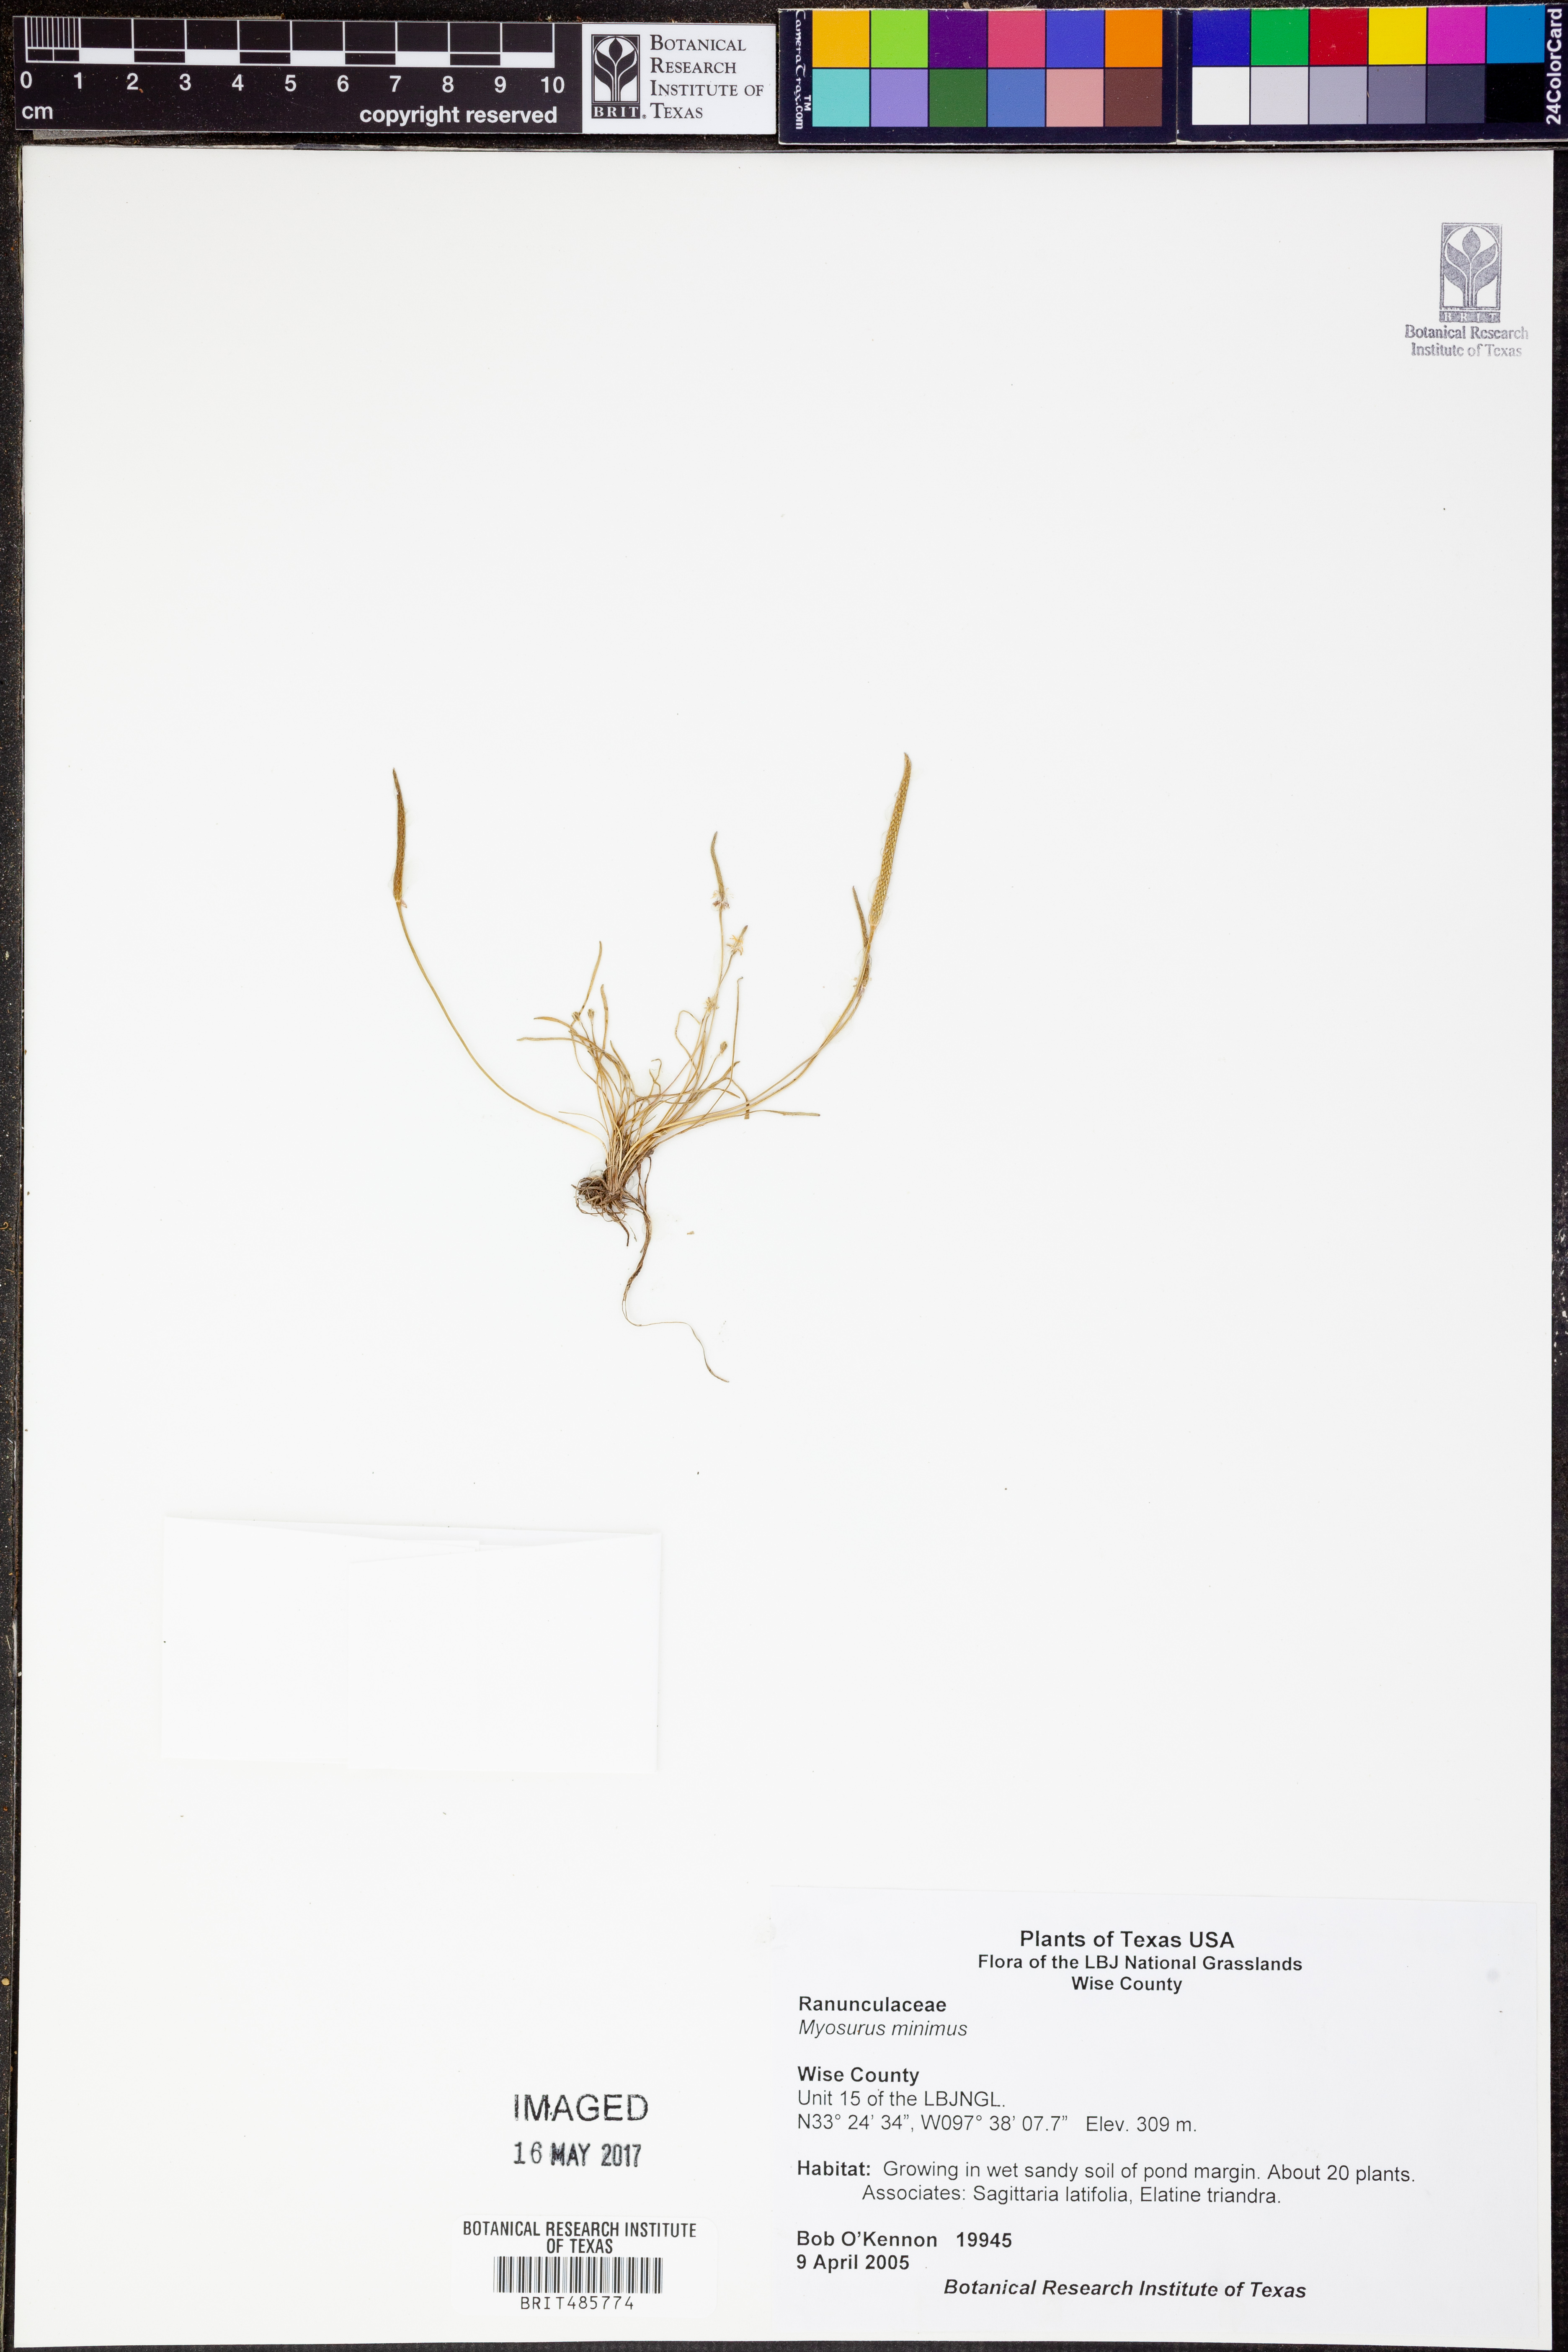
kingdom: Plantae
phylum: Tracheophyta
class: Magnoliopsida
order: Ranunculales
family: Ranunculaceae
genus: Myosurus
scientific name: Myosurus minimus
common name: Mousetail
